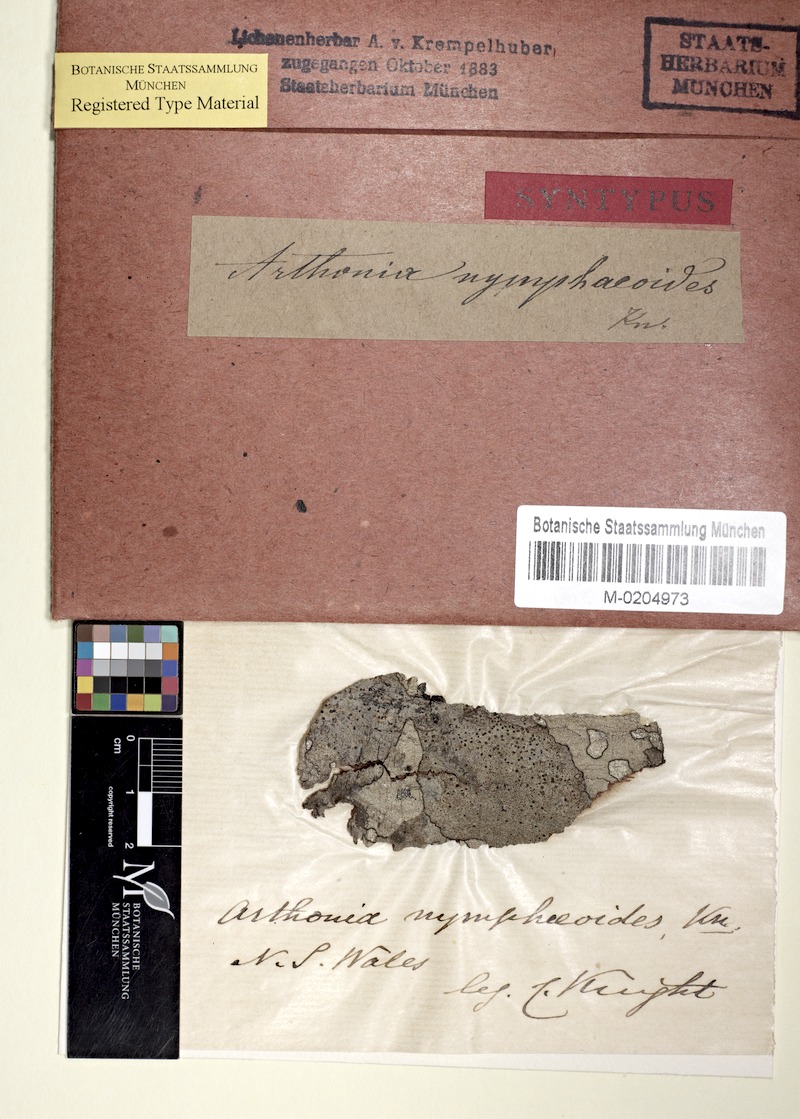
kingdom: Fungi
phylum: Ascomycota
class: Arthoniomycetes
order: Arthoniales
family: Arthoniaceae
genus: Arthonia
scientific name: Arthonia nymphaeoides
